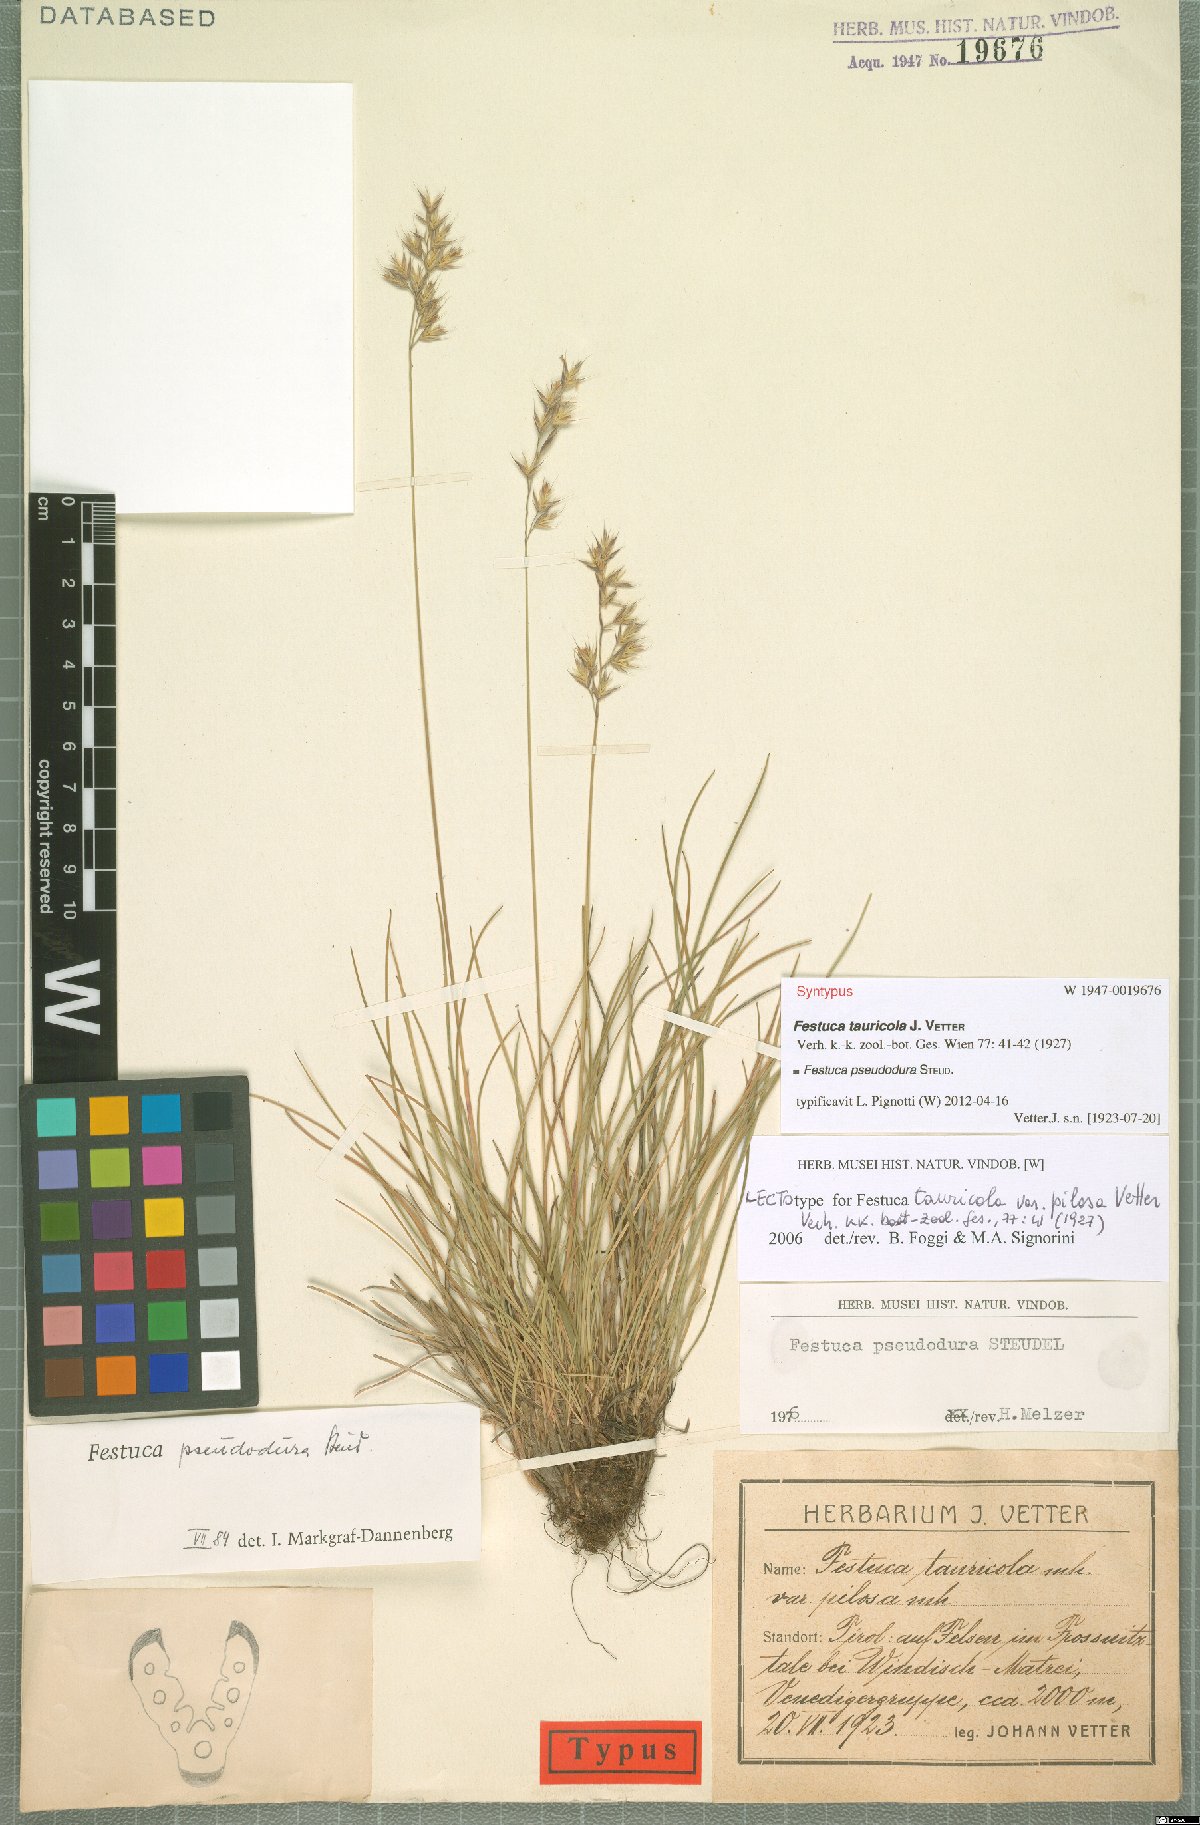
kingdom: Plantae
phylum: Tracheophyta
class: Liliopsida
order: Poales
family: Poaceae
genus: Festuca
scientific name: Festuca pseudodura
